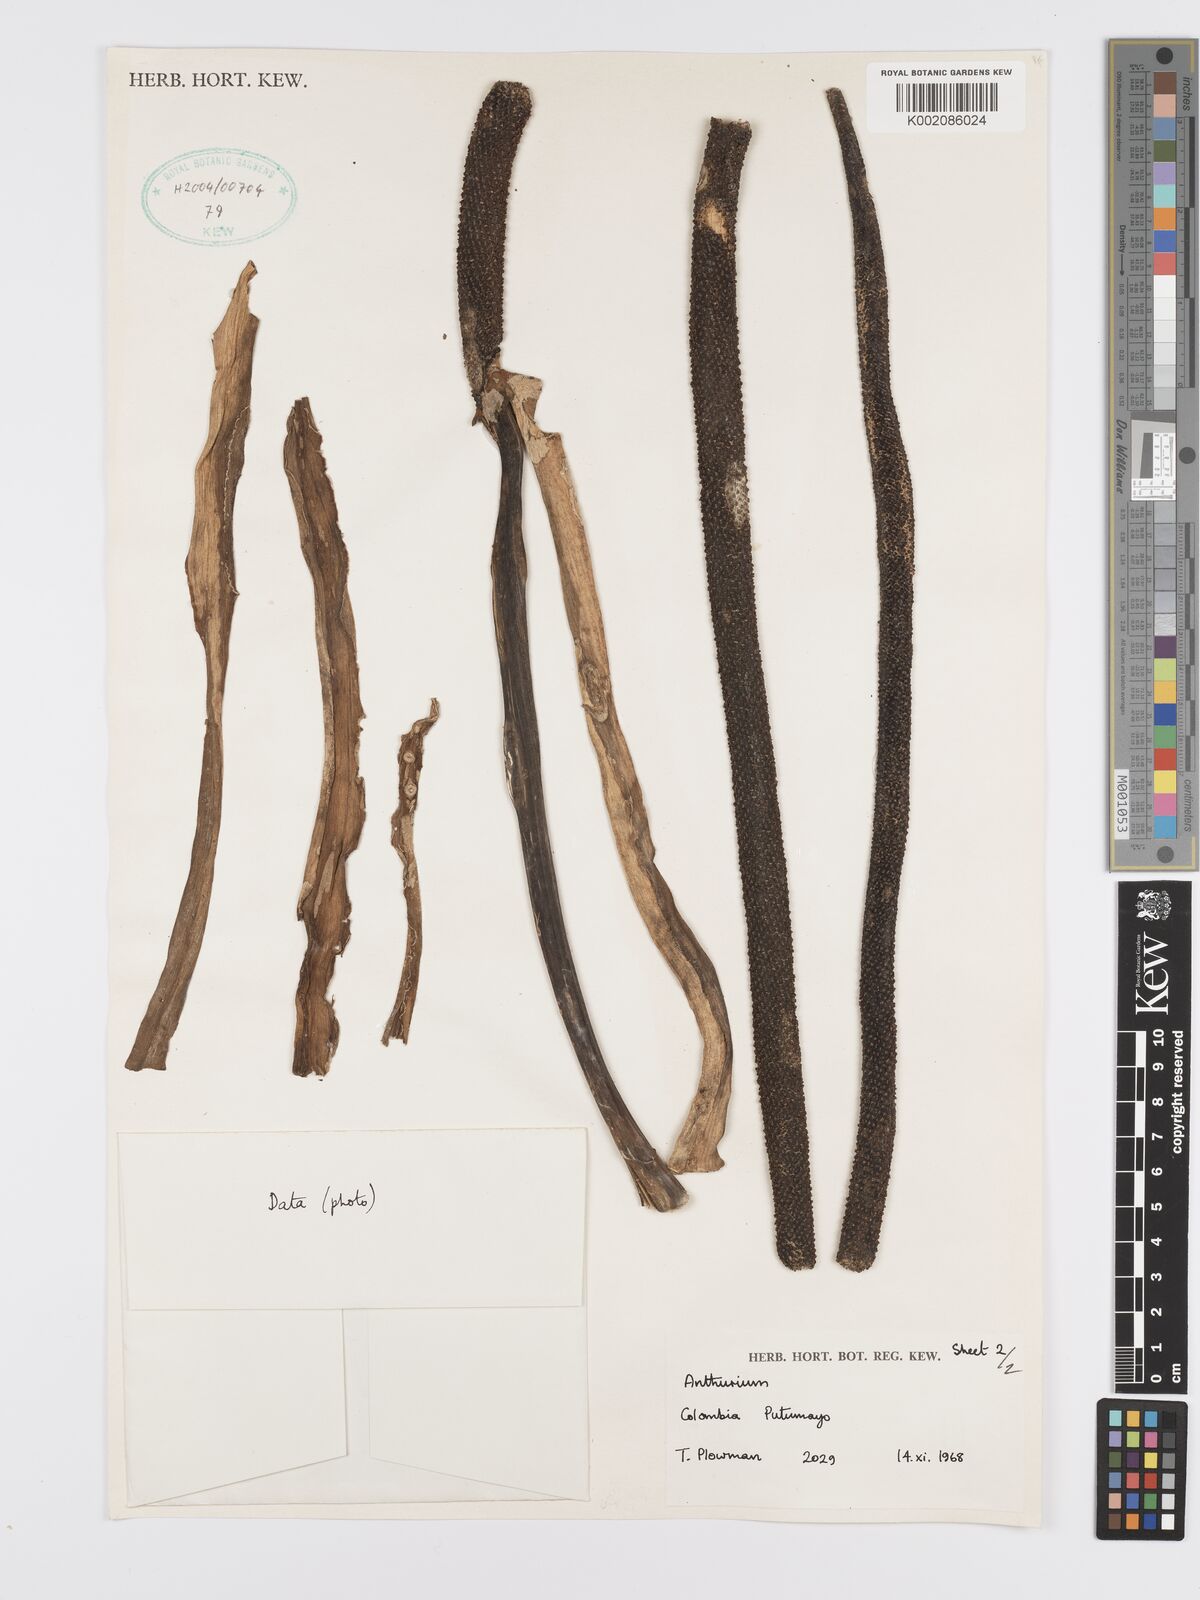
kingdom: Plantae
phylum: Tracheophyta
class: Liliopsida
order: Alismatales
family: Araceae
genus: Anthurium
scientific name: Anthurium eminens
